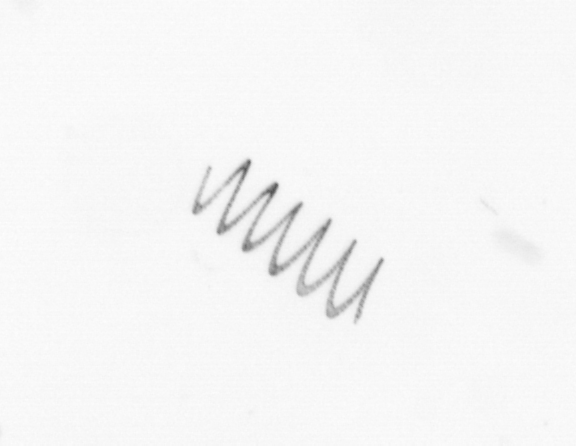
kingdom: Chromista
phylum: Ochrophyta
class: Bacillariophyceae
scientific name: Bacillariophyceae
